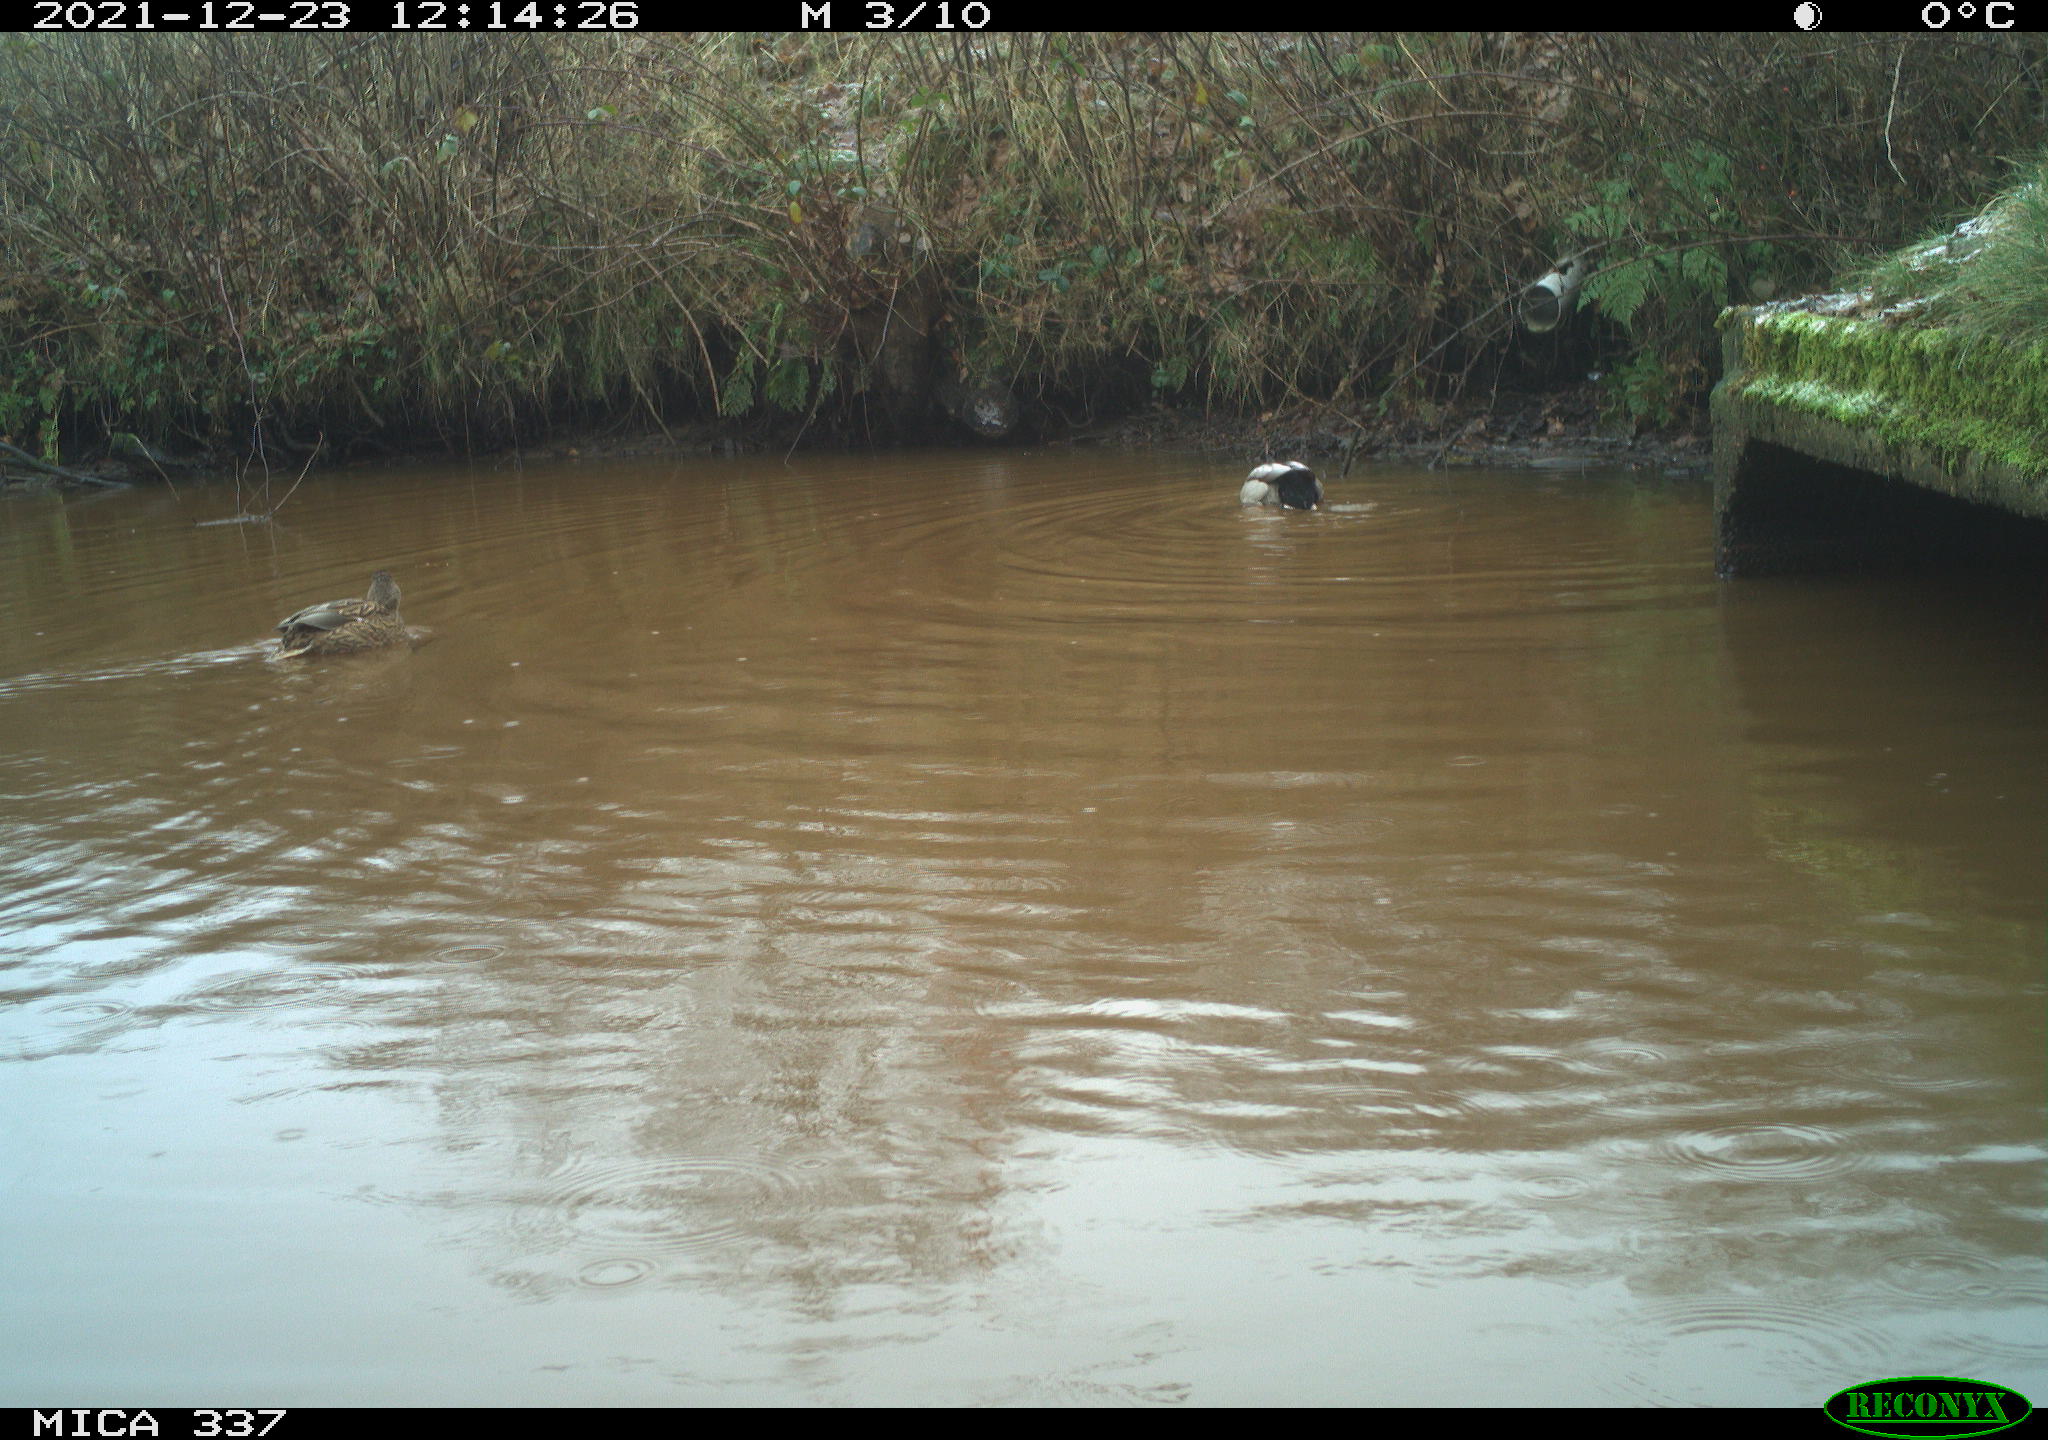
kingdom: Animalia
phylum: Chordata
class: Aves
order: Anseriformes
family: Anatidae
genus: Anas
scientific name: Anas platyrhynchos
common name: Mallard
